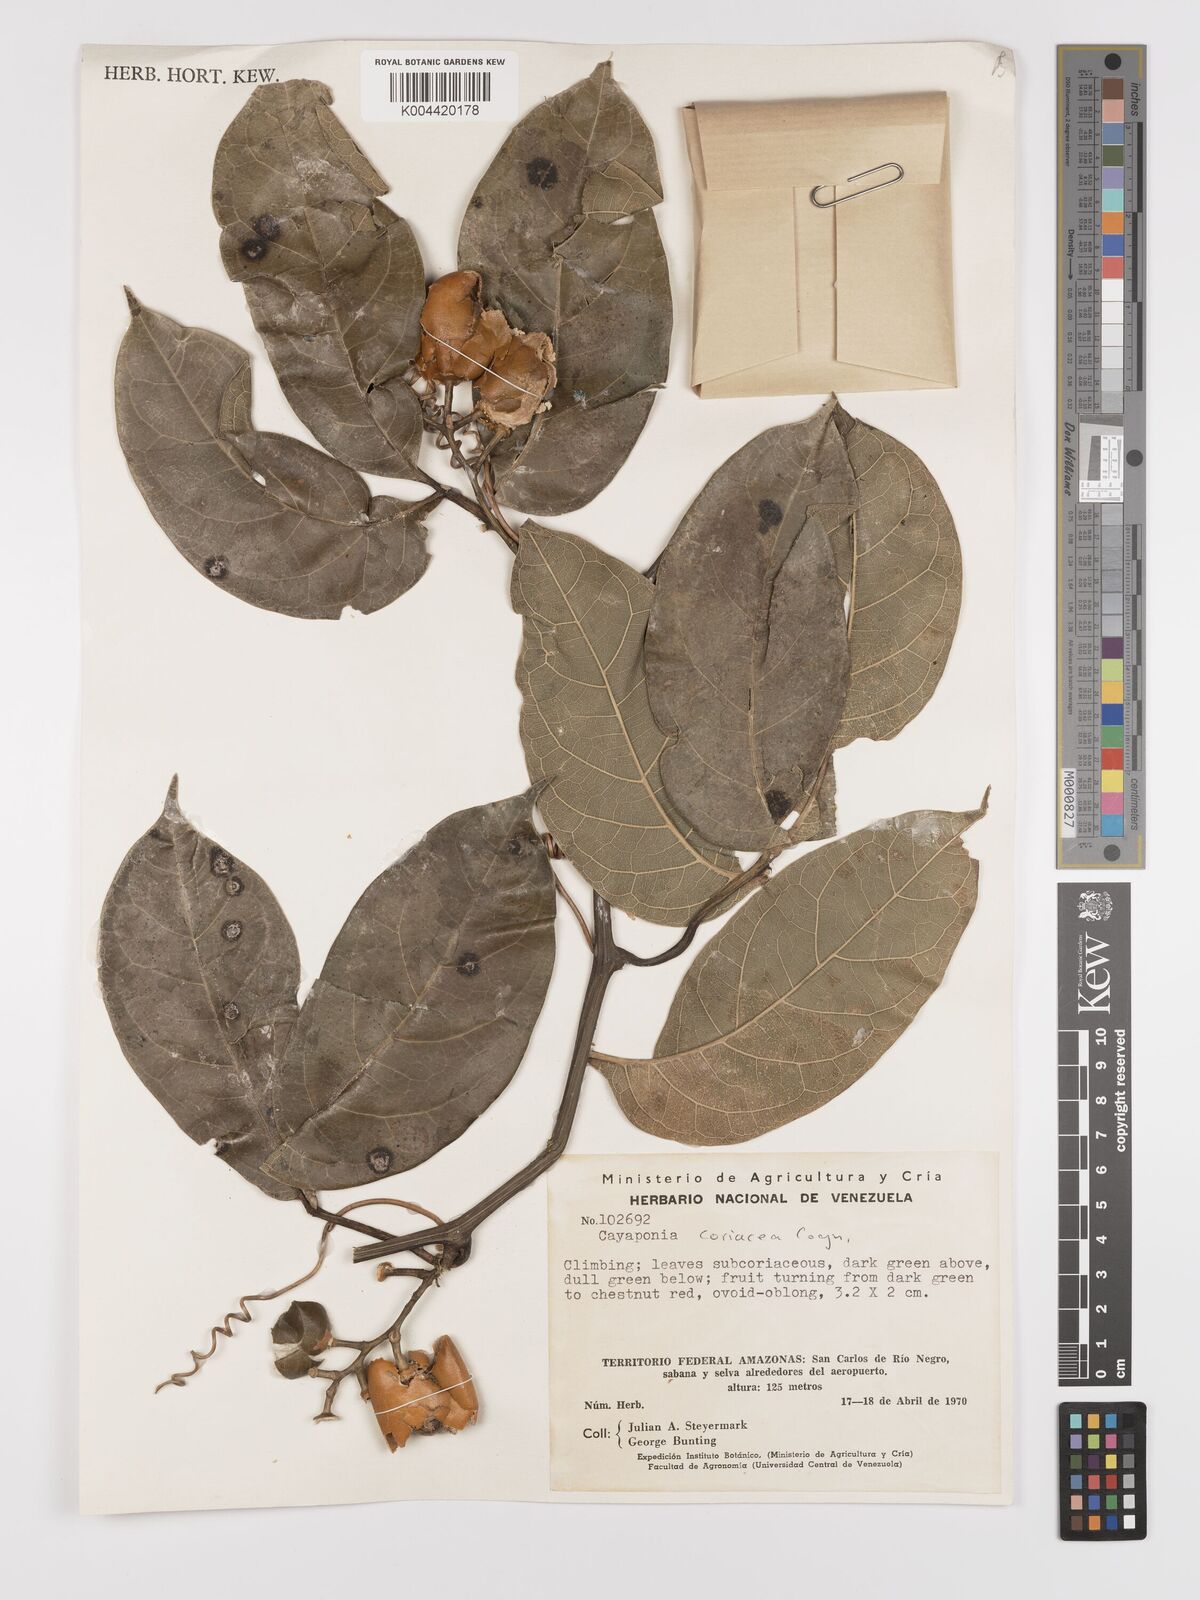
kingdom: Plantae
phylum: Tracheophyta
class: Magnoliopsida
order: Cucurbitales
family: Cucurbitaceae
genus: Cayaponia
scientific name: Cayaponia coriacea
